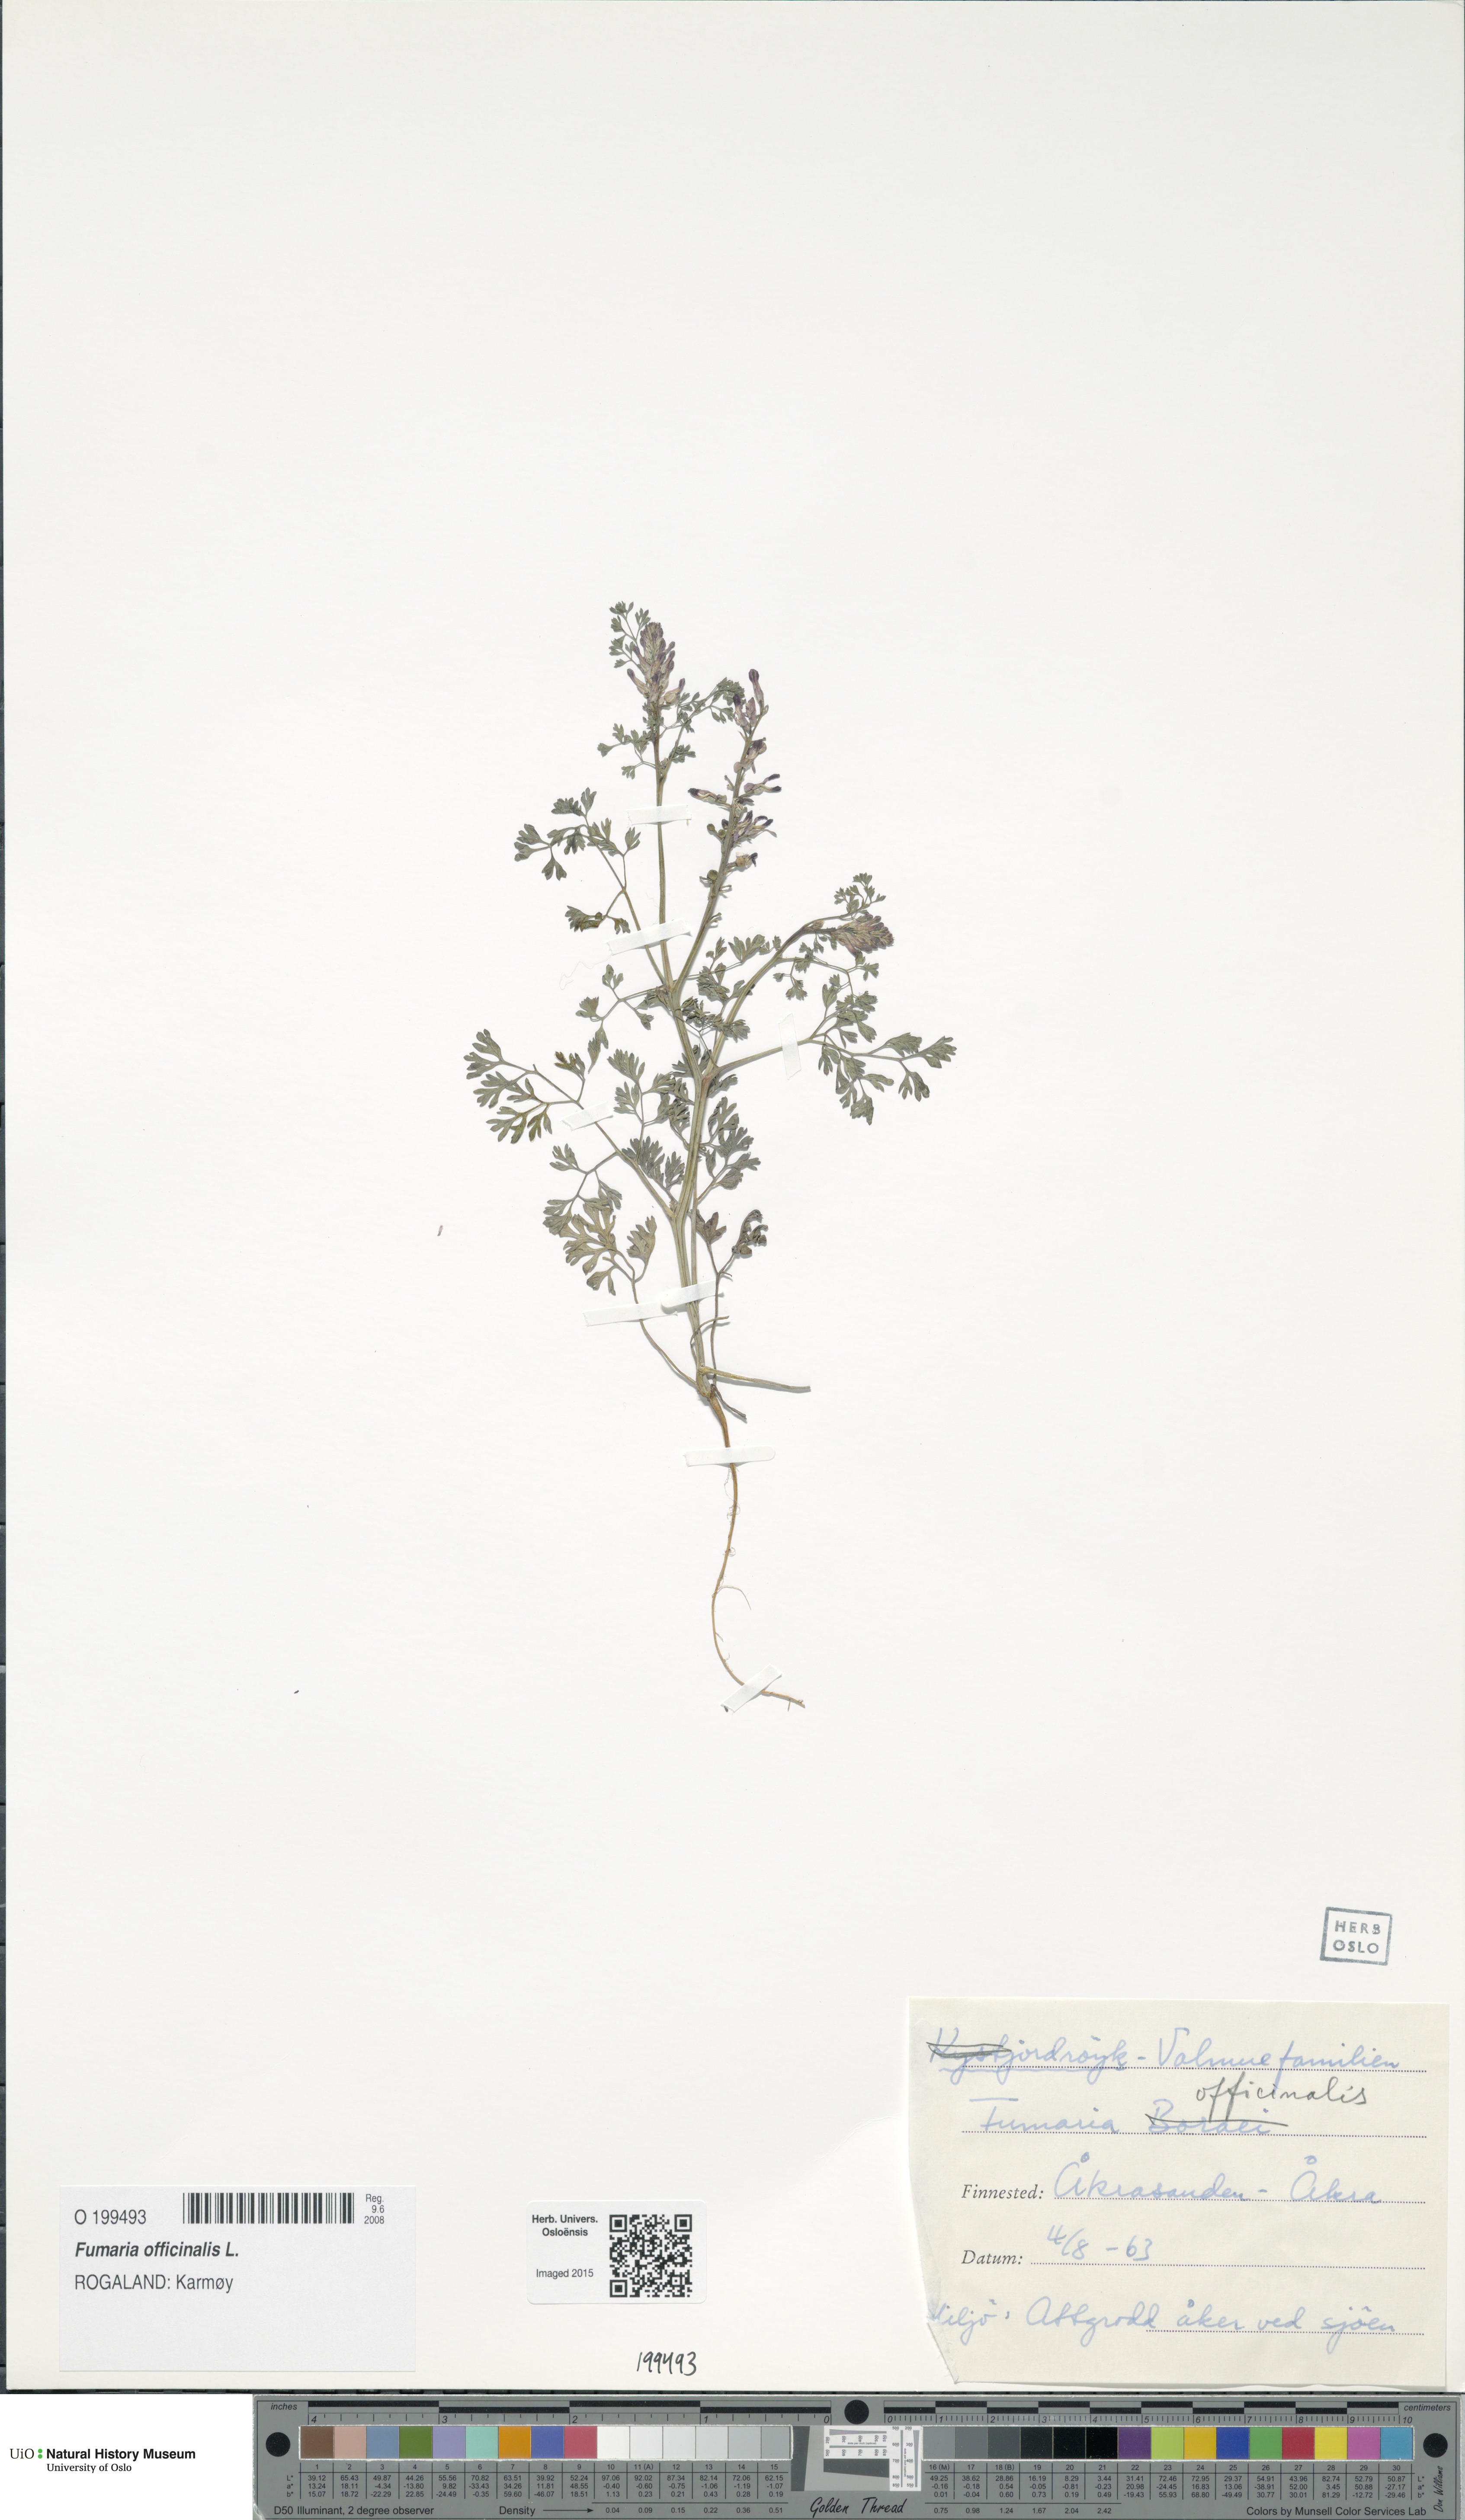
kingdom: Plantae
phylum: Tracheophyta
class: Magnoliopsida
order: Ranunculales
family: Papaveraceae
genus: Fumaria
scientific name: Fumaria officinalis
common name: Common fumitory
